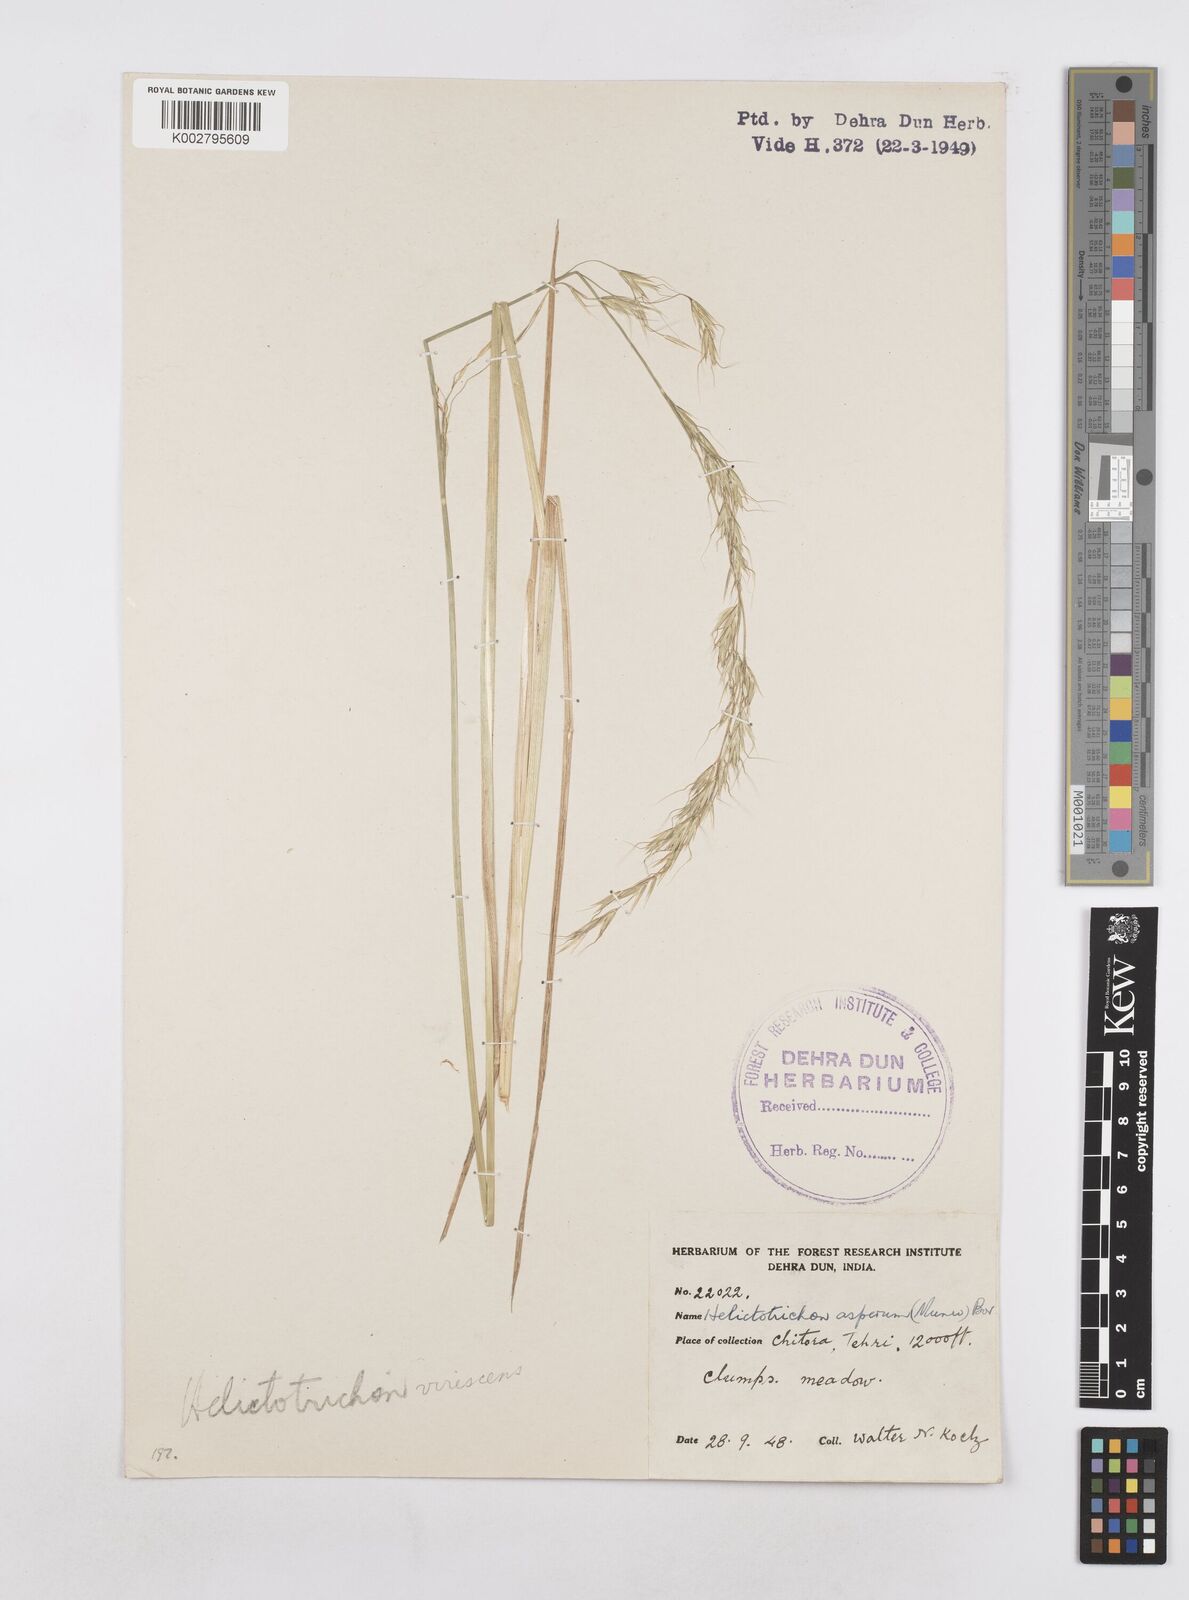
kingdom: Plantae
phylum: Tracheophyta
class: Liliopsida
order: Poales
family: Poaceae
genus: Helictotrichon
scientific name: Helictotrichon
